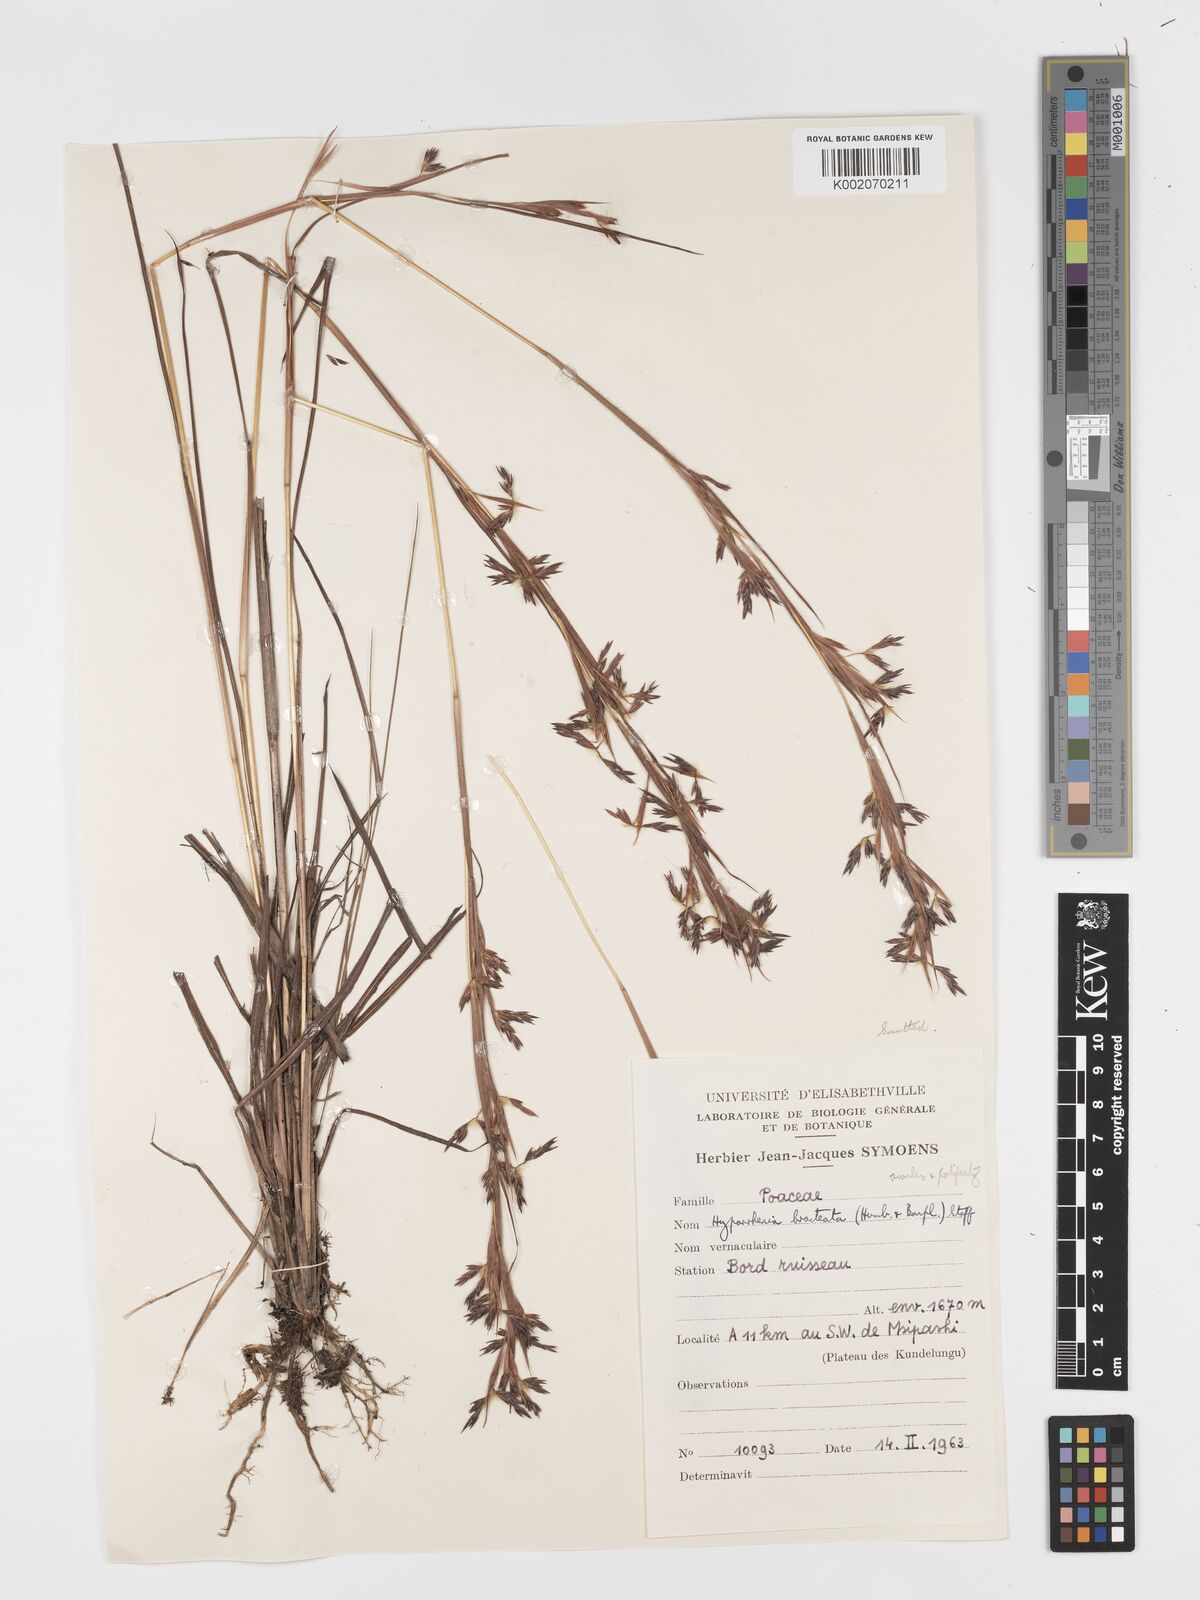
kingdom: Plantae
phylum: Tracheophyta
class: Liliopsida
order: Poales
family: Poaceae
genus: Hyparrhenia
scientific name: Hyparrhenia bracteata
